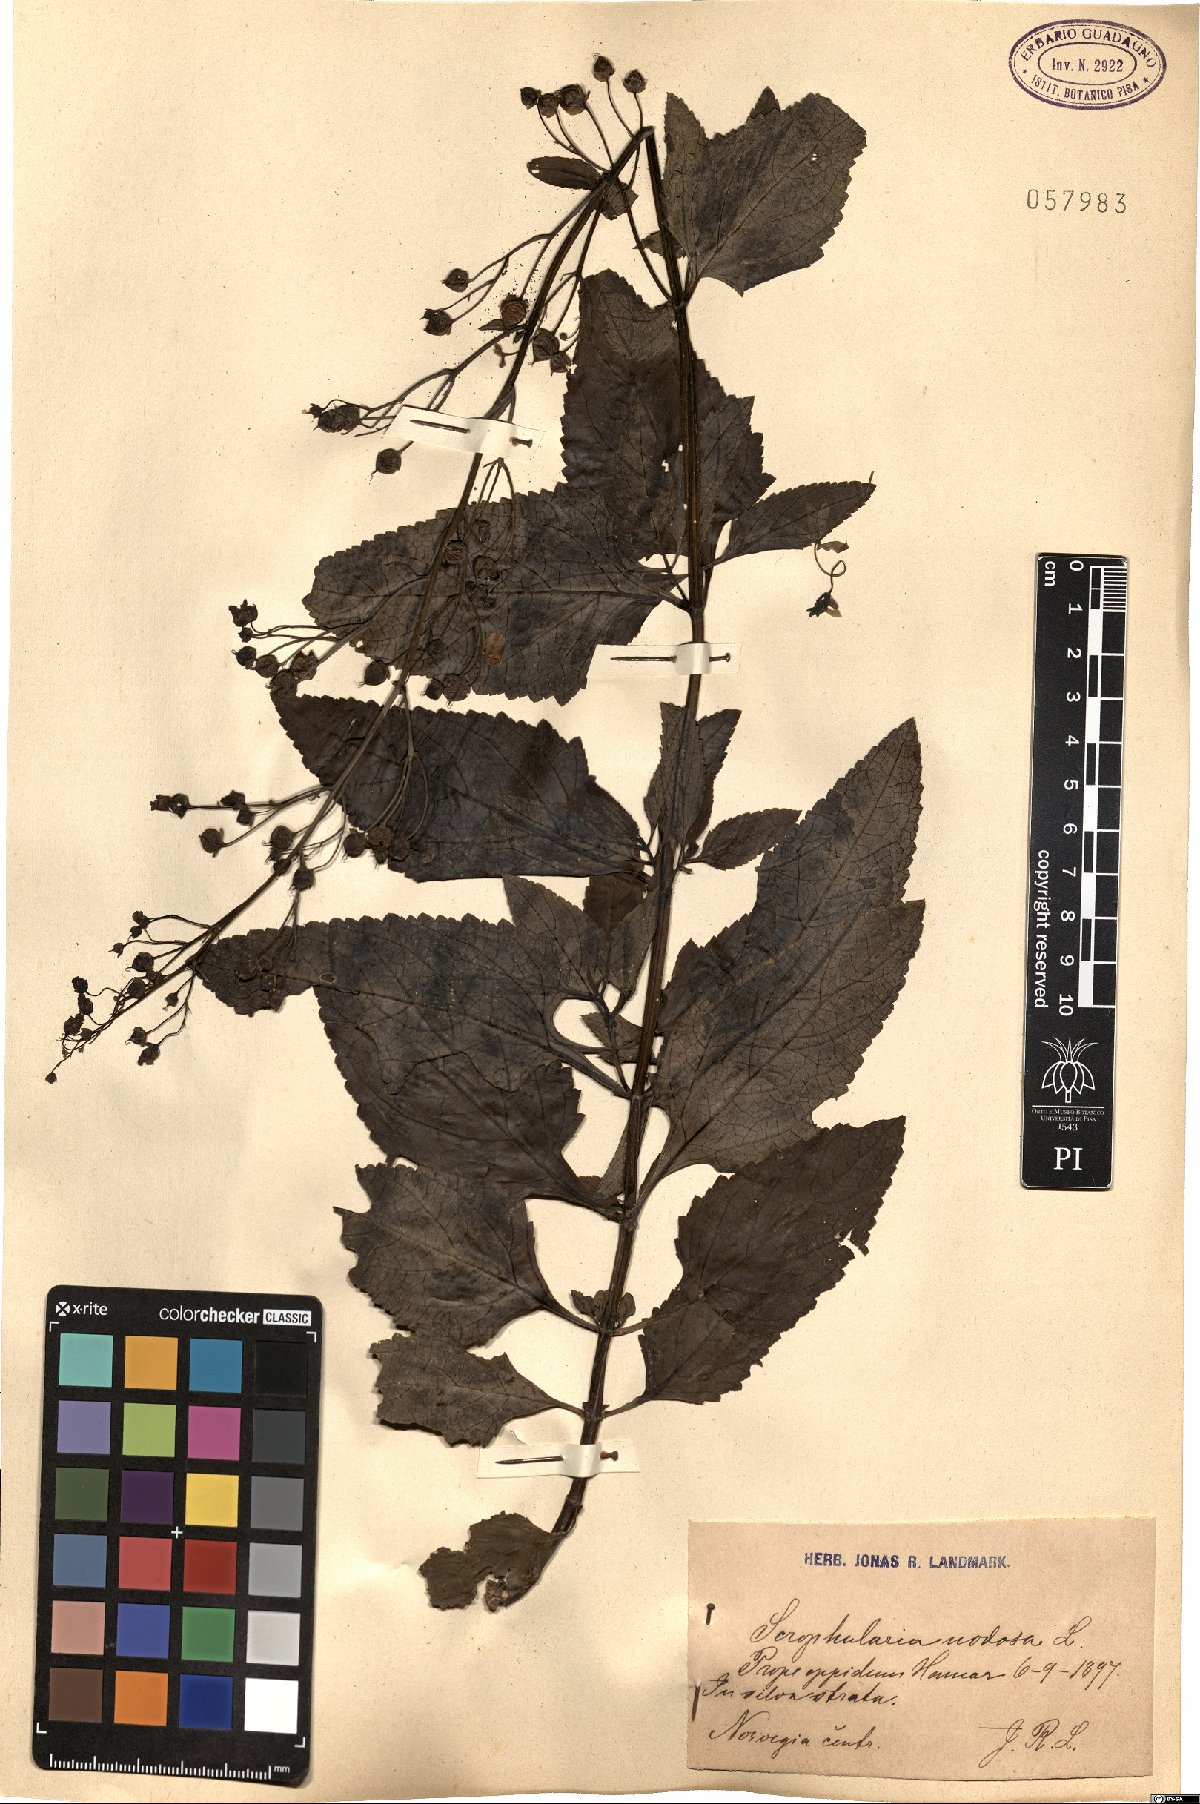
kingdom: Plantae
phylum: Tracheophyta
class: Magnoliopsida
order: Lamiales
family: Scrophulariaceae
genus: Scrophularia
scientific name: Scrophularia nodosa
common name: Common figwort
